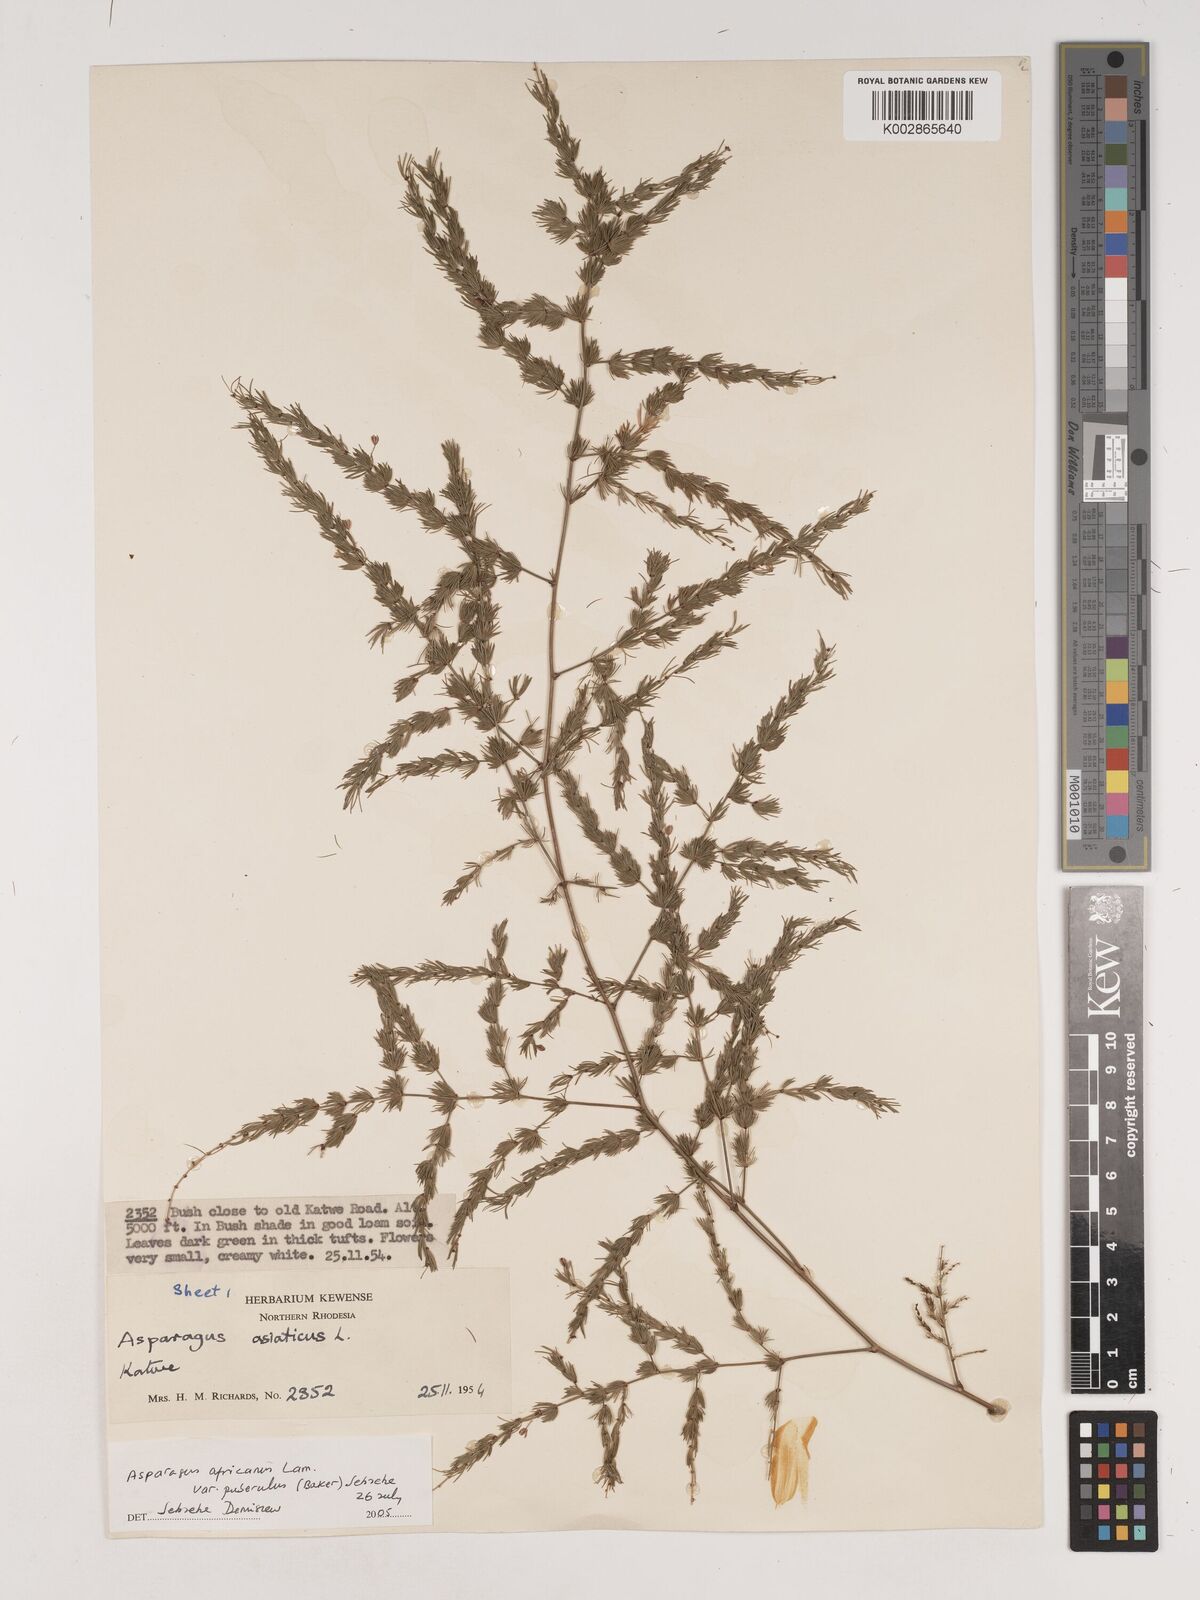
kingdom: Plantae
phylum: Tracheophyta
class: Liliopsida
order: Asparagales
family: Asparagaceae
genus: Asparagus
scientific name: Asparagus africanus
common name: Asparagus-fern
